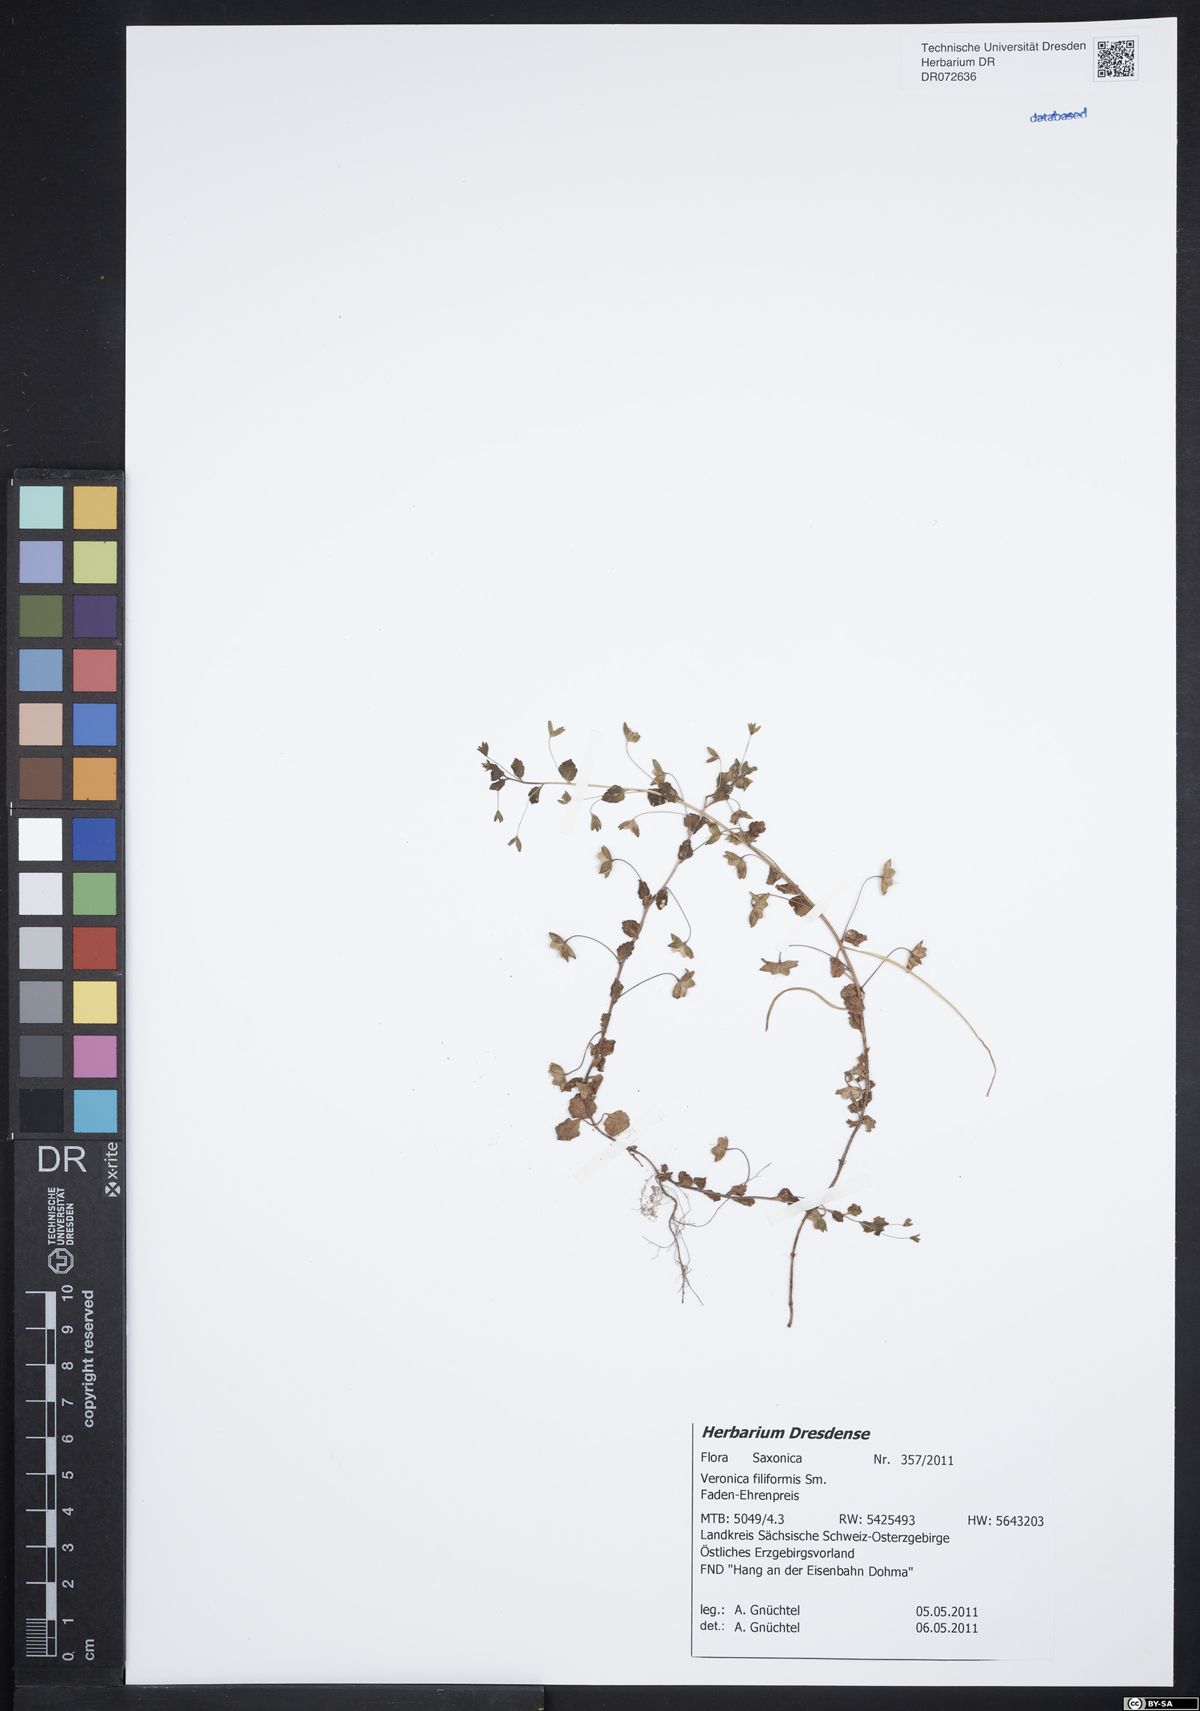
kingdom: Plantae
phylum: Tracheophyta
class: Magnoliopsida
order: Lamiales
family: Plantaginaceae
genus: Veronica
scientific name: Veronica filiformis
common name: Slender speedwell
